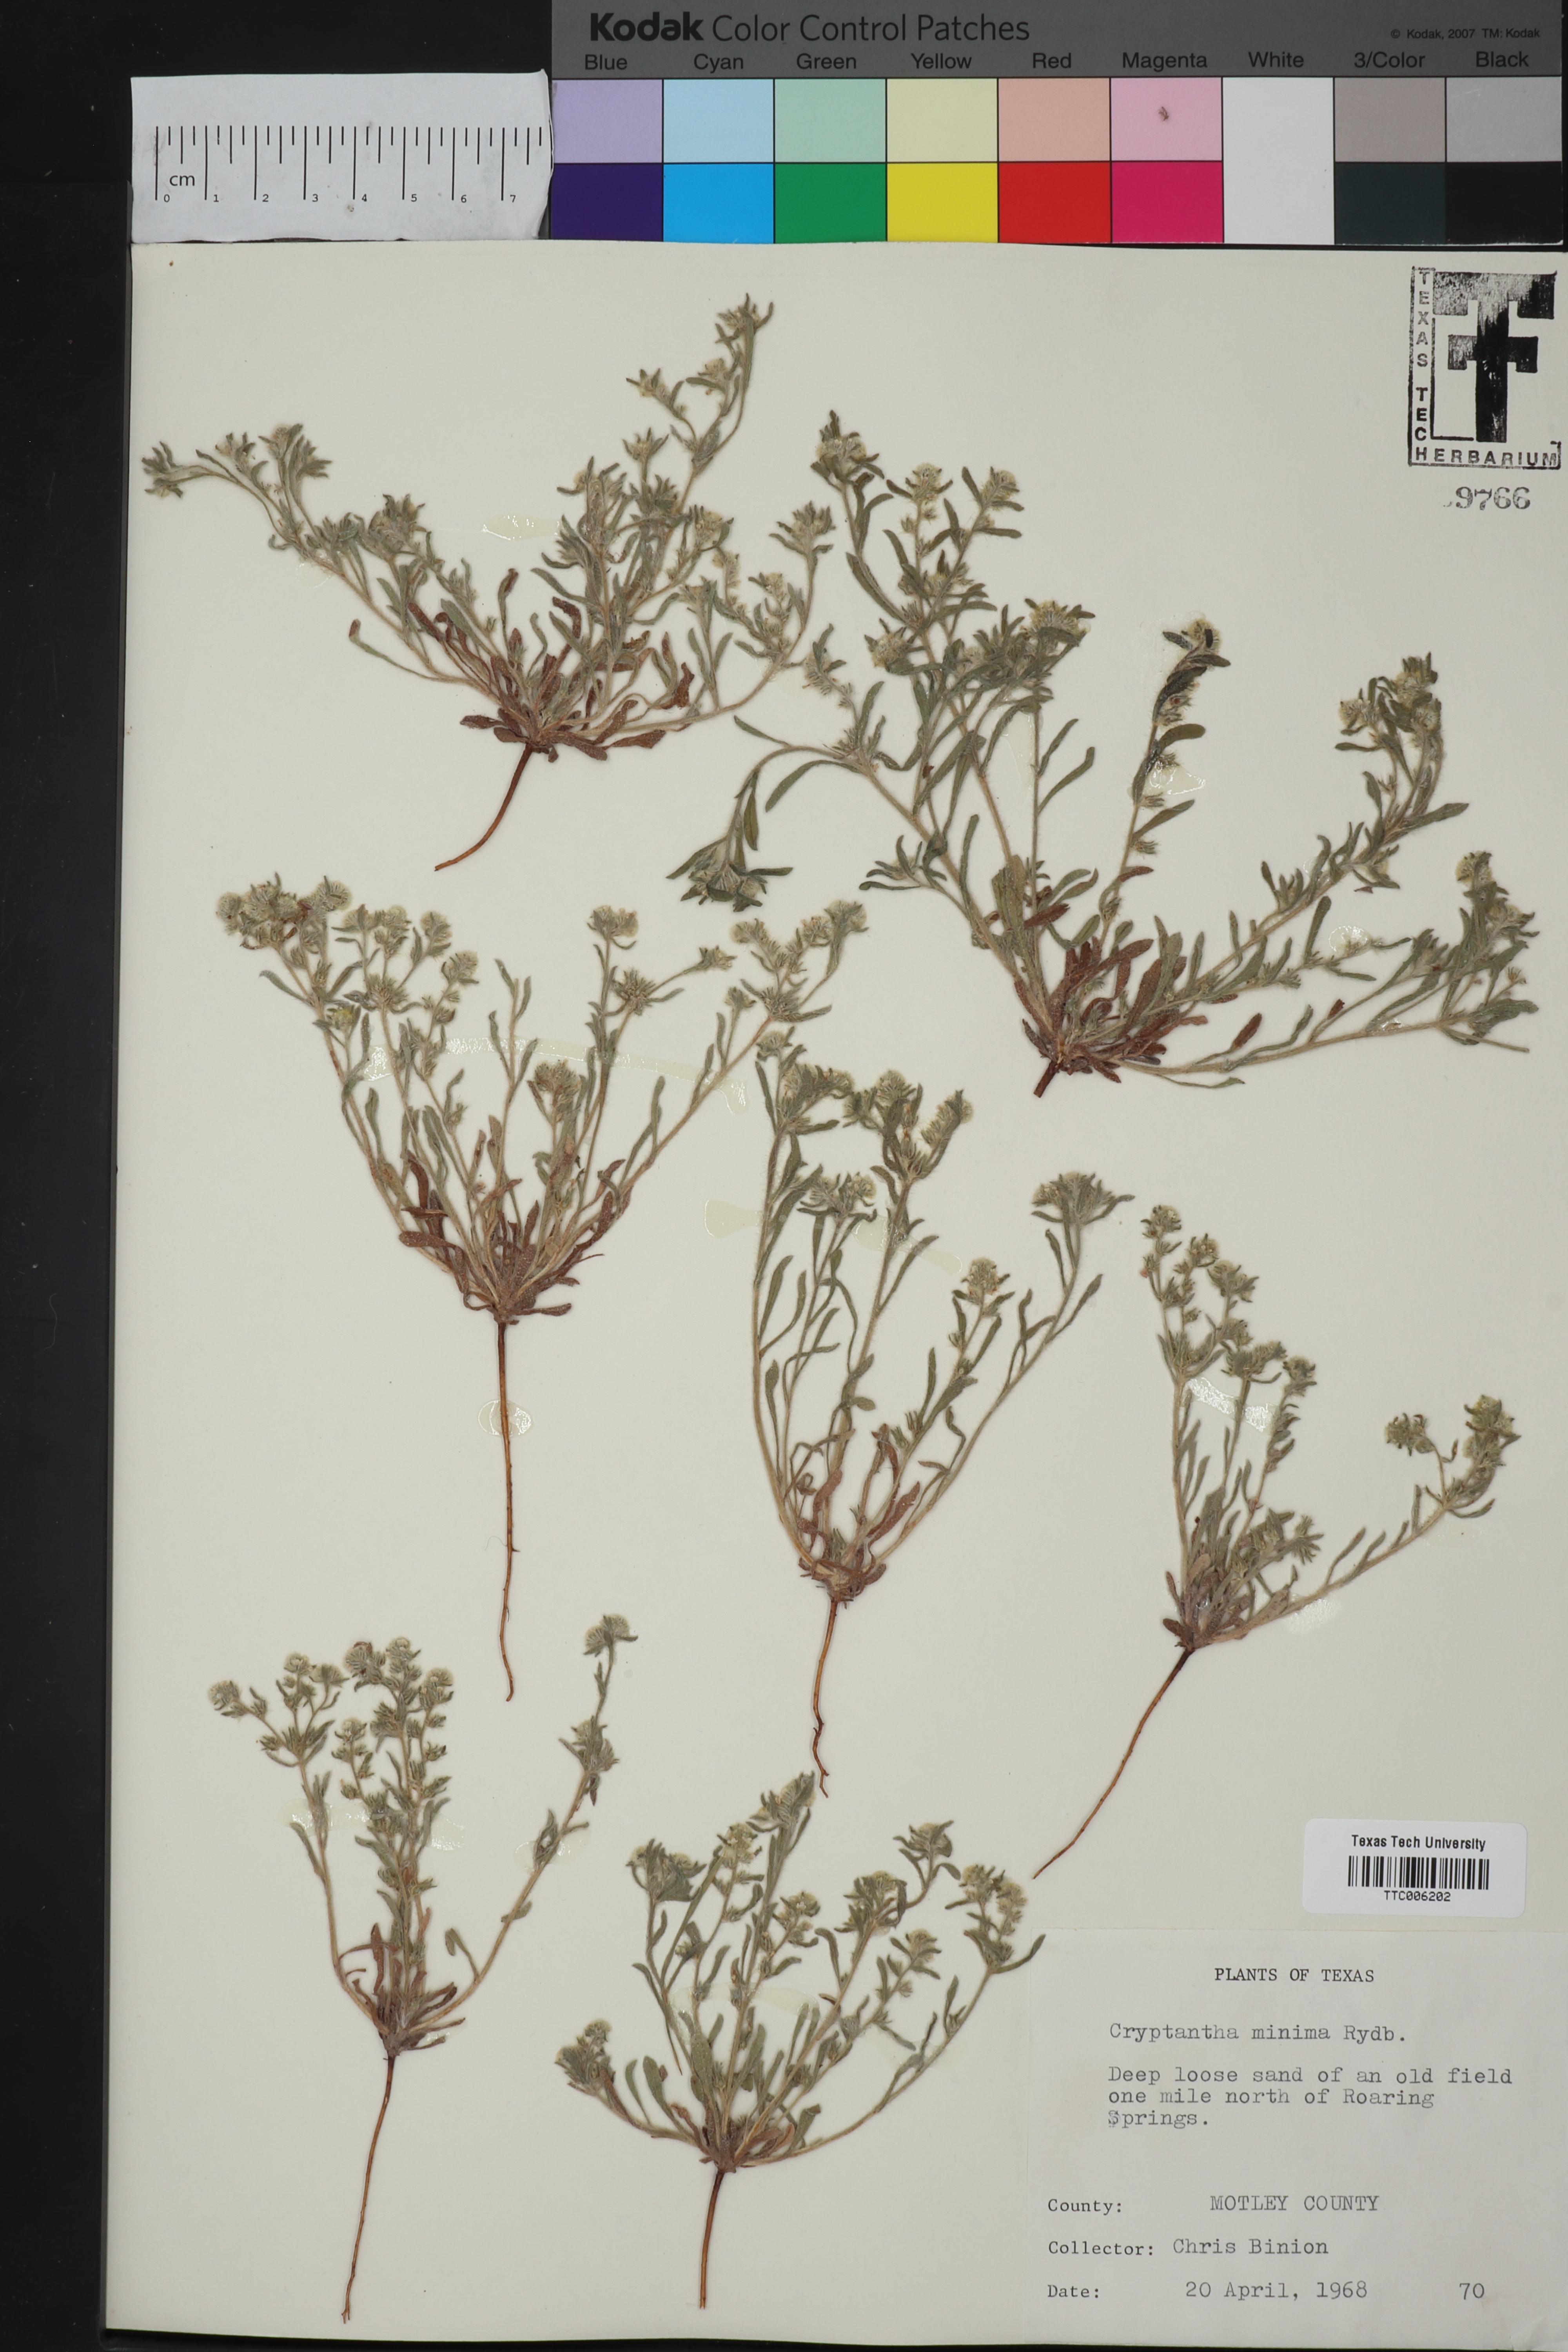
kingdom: Plantae
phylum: Tracheophyta
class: Magnoliopsida
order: Boraginales
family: Boraginaceae
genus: Cryptantha
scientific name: Cryptantha minima
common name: Little cat's-eye
